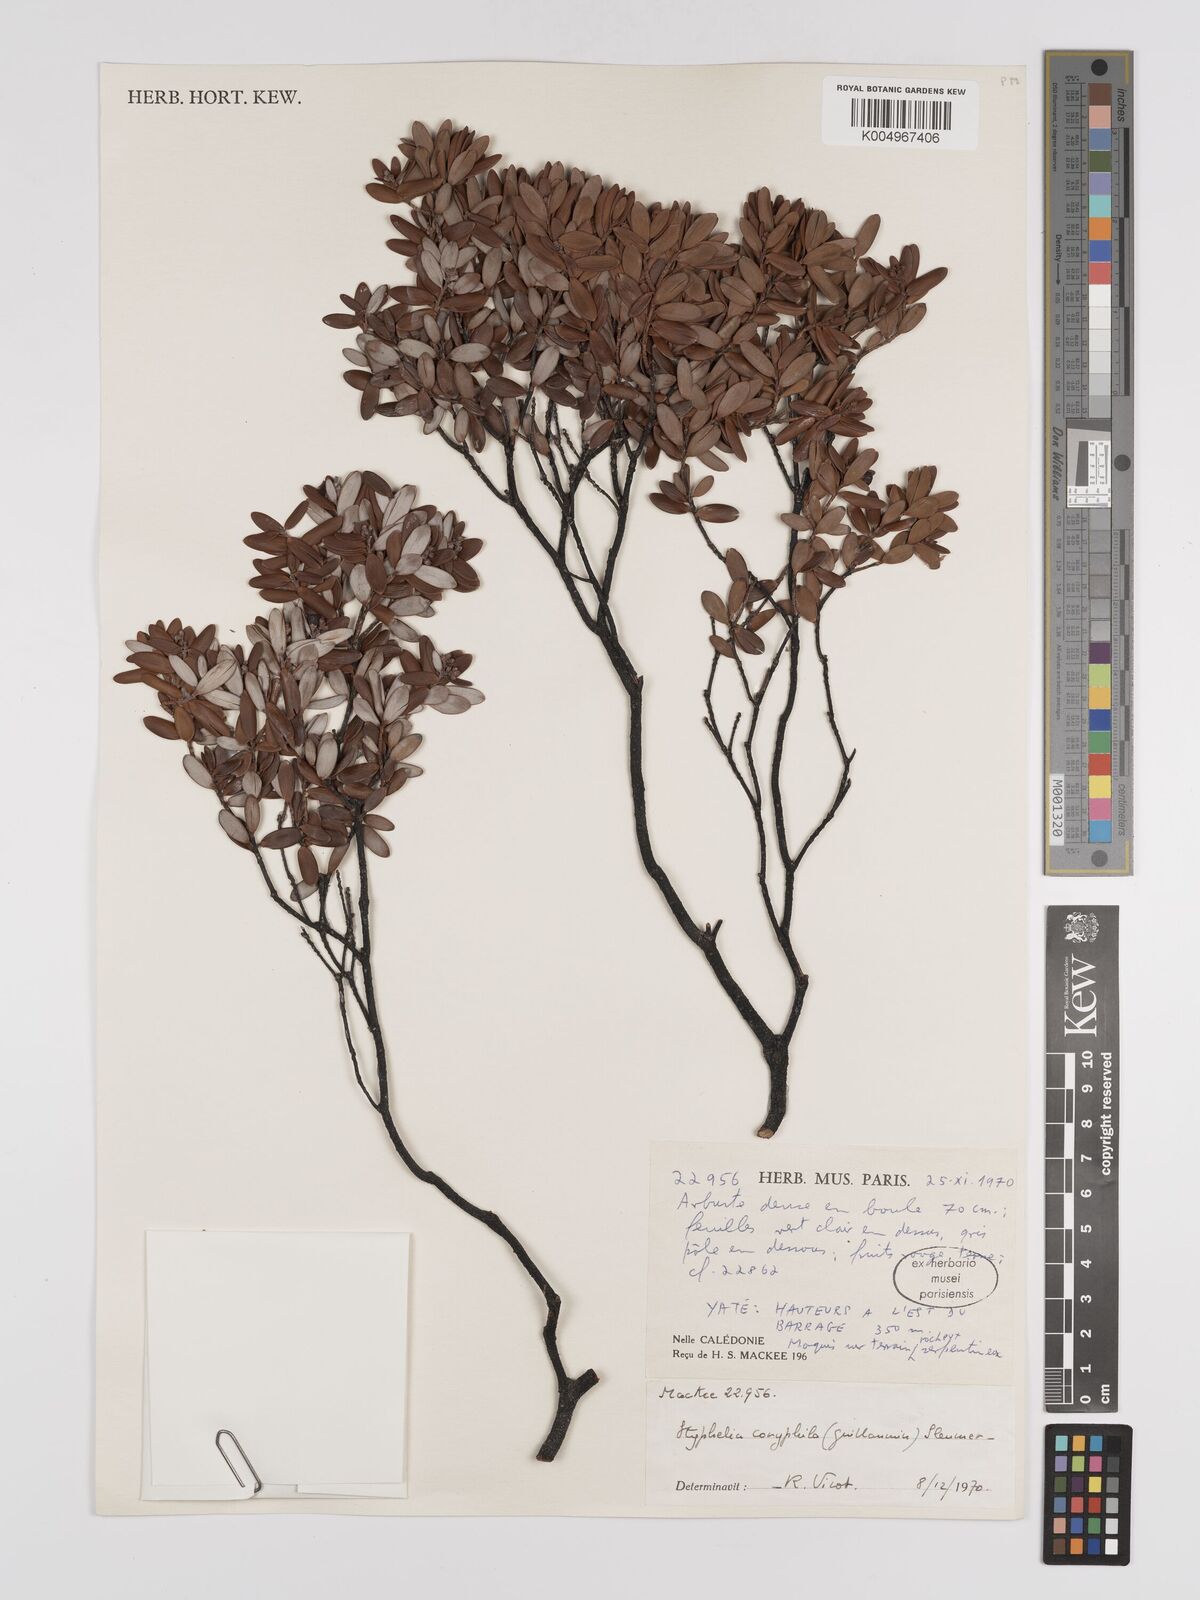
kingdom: Plantae
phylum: Tracheophyta
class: Magnoliopsida
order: Ericales
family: Ericaceae
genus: Cyathopsis
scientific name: Cyathopsis albicans
